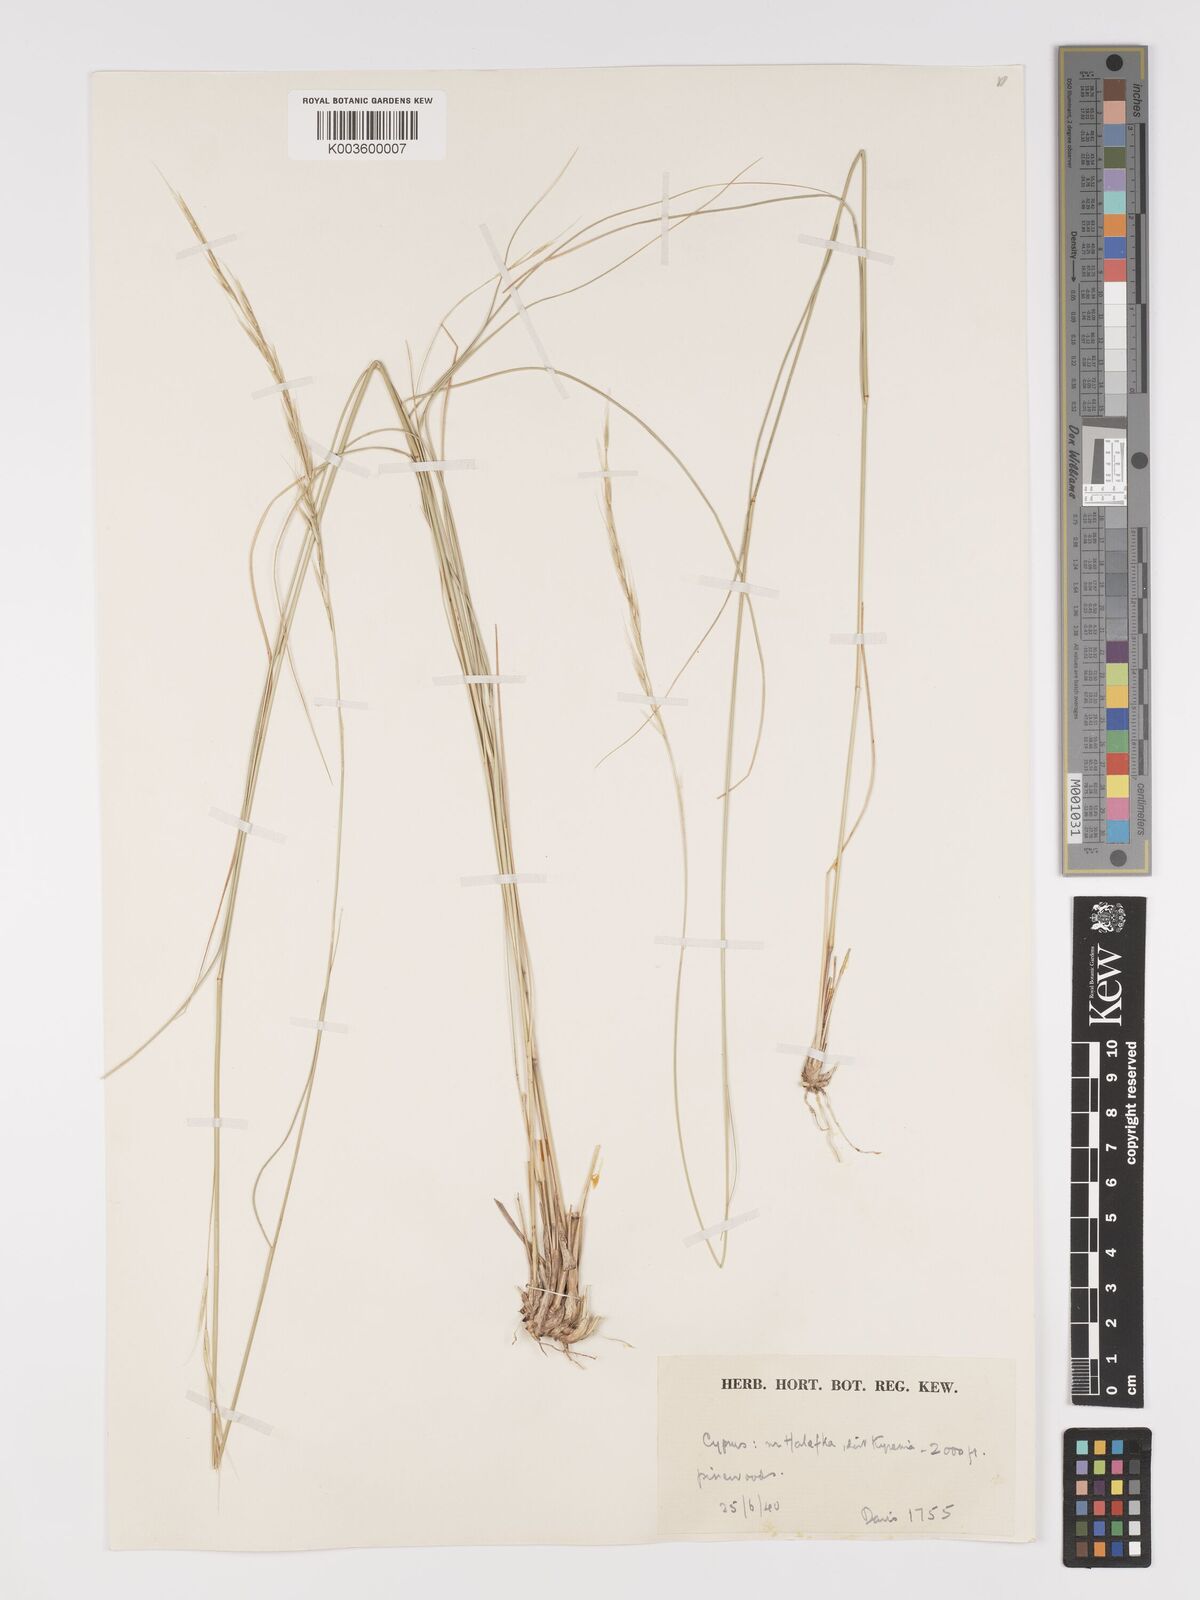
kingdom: Plantae
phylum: Tracheophyta
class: Liliopsida
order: Poales
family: Poaceae
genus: Achnatherum
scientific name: Achnatherum bromoides
